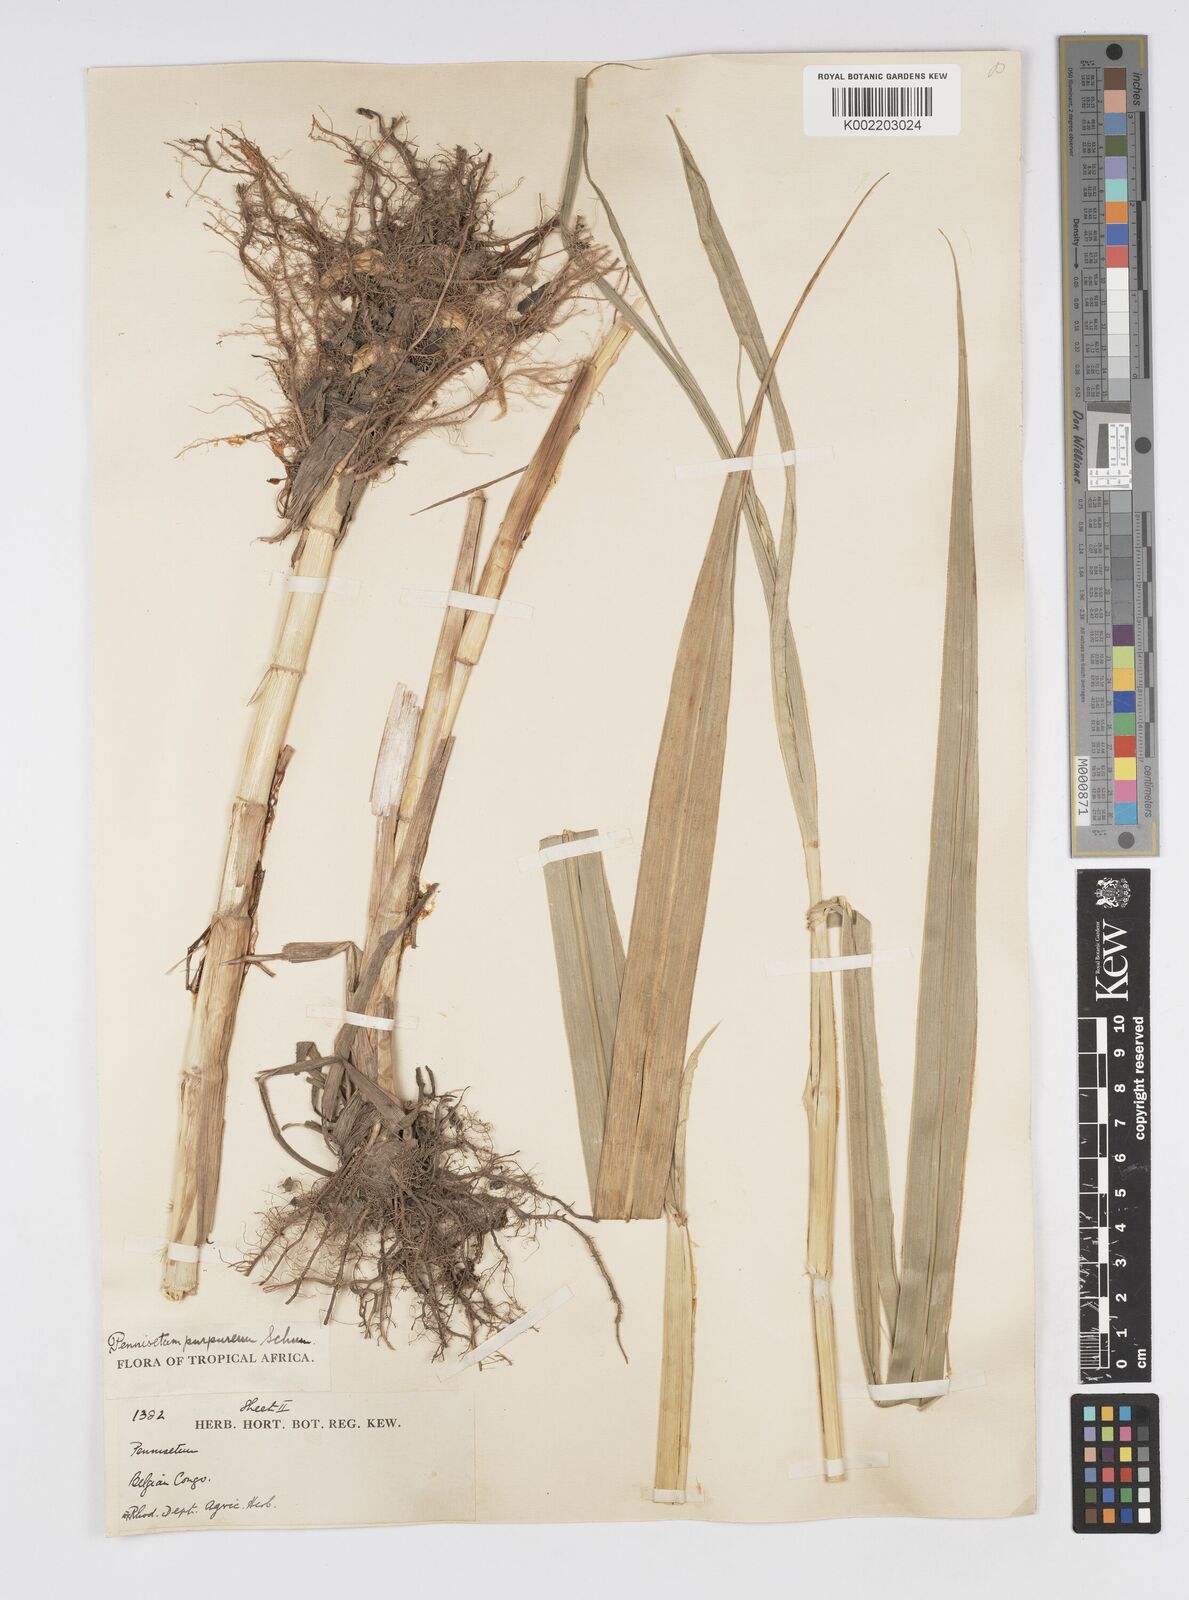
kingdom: Plantae
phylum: Tracheophyta
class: Liliopsida
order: Poales
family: Poaceae
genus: Cenchrus
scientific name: Cenchrus purpureus
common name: Elephant grass
